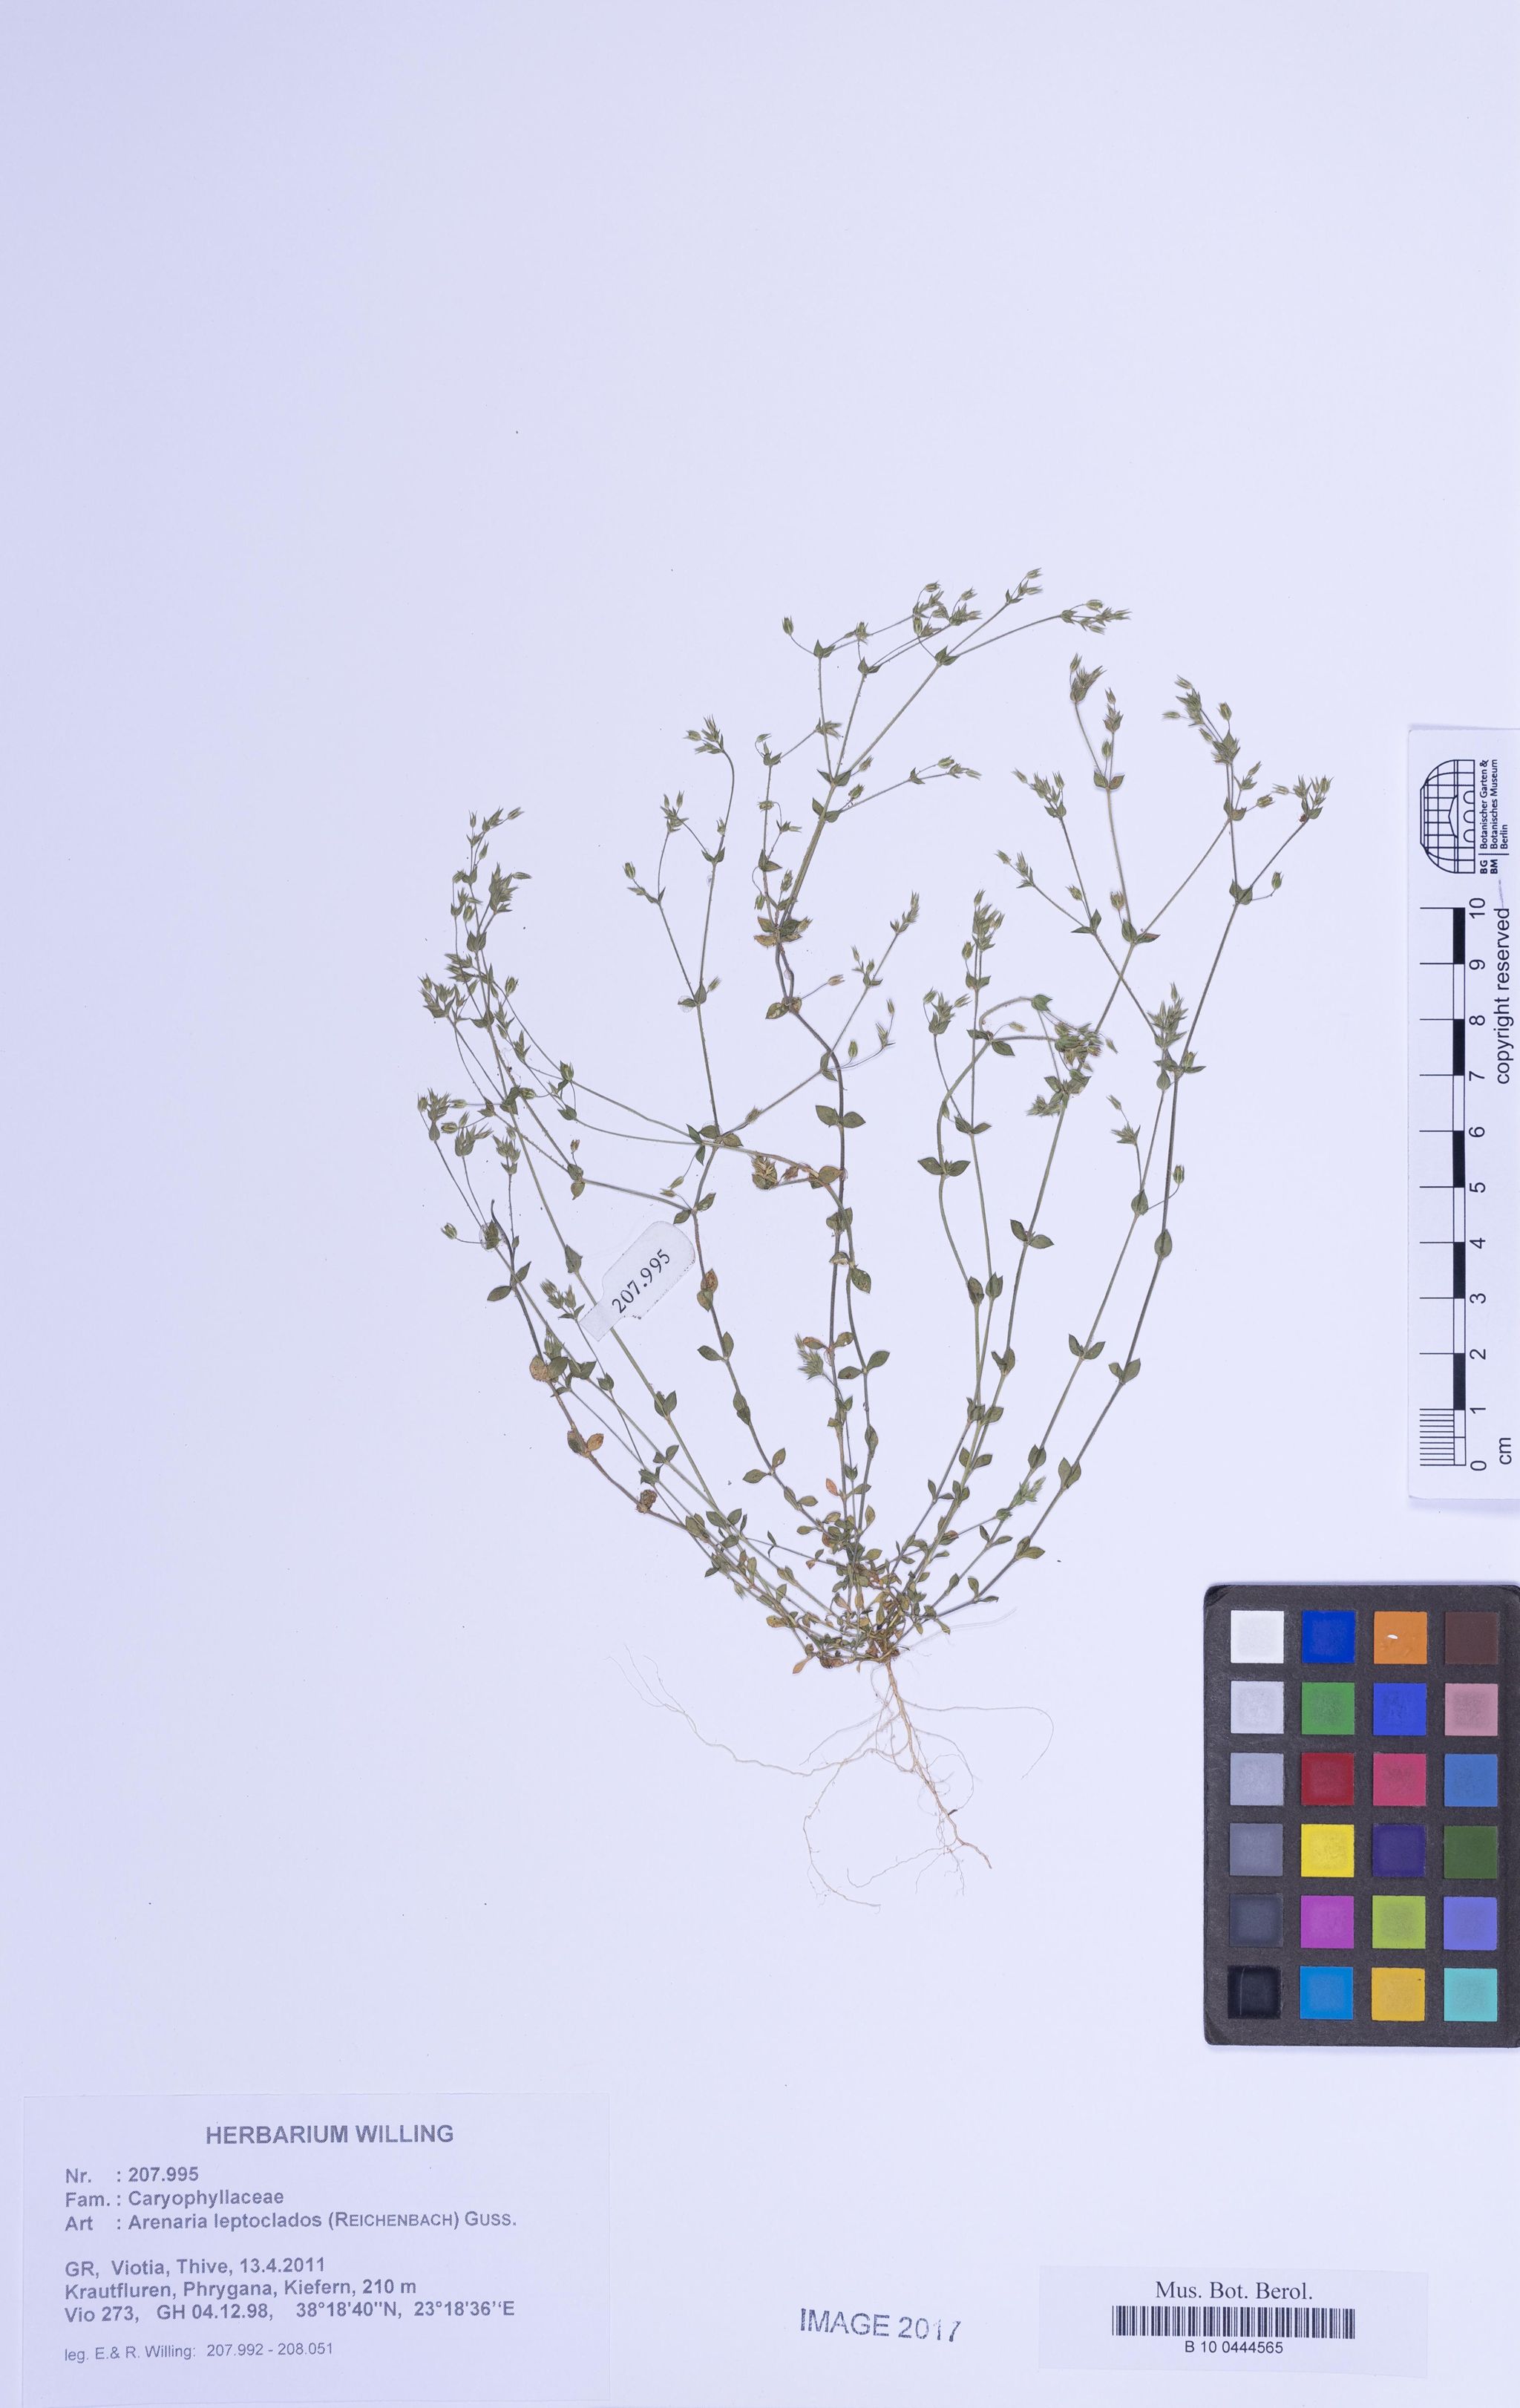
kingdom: Plantae
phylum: Tracheophyta
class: Magnoliopsida
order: Caryophyllales
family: Caryophyllaceae
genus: Arenaria
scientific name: Arenaria leptoclados
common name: Thyme-leaved sandwort
